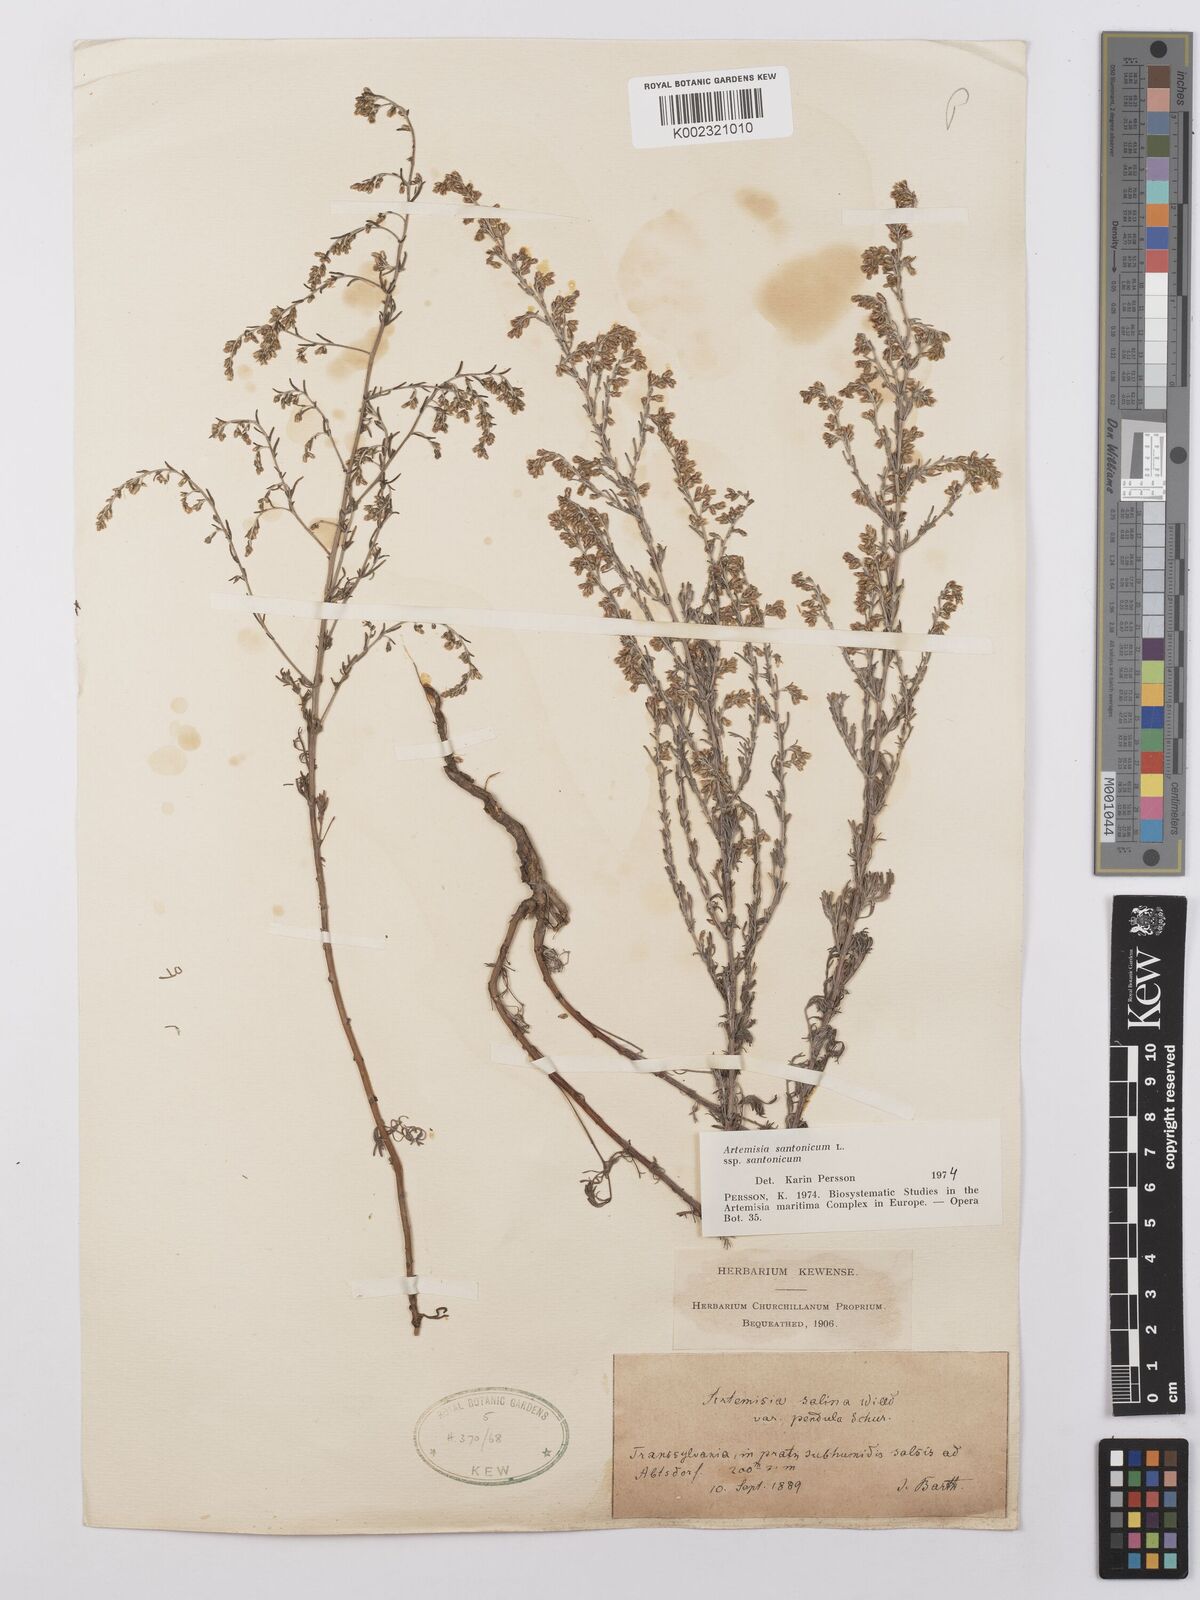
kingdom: Plantae
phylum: Tracheophyta
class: Magnoliopsida
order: Asterales
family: Asteraceae
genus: Artemisia
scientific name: Artemisia santonicum
